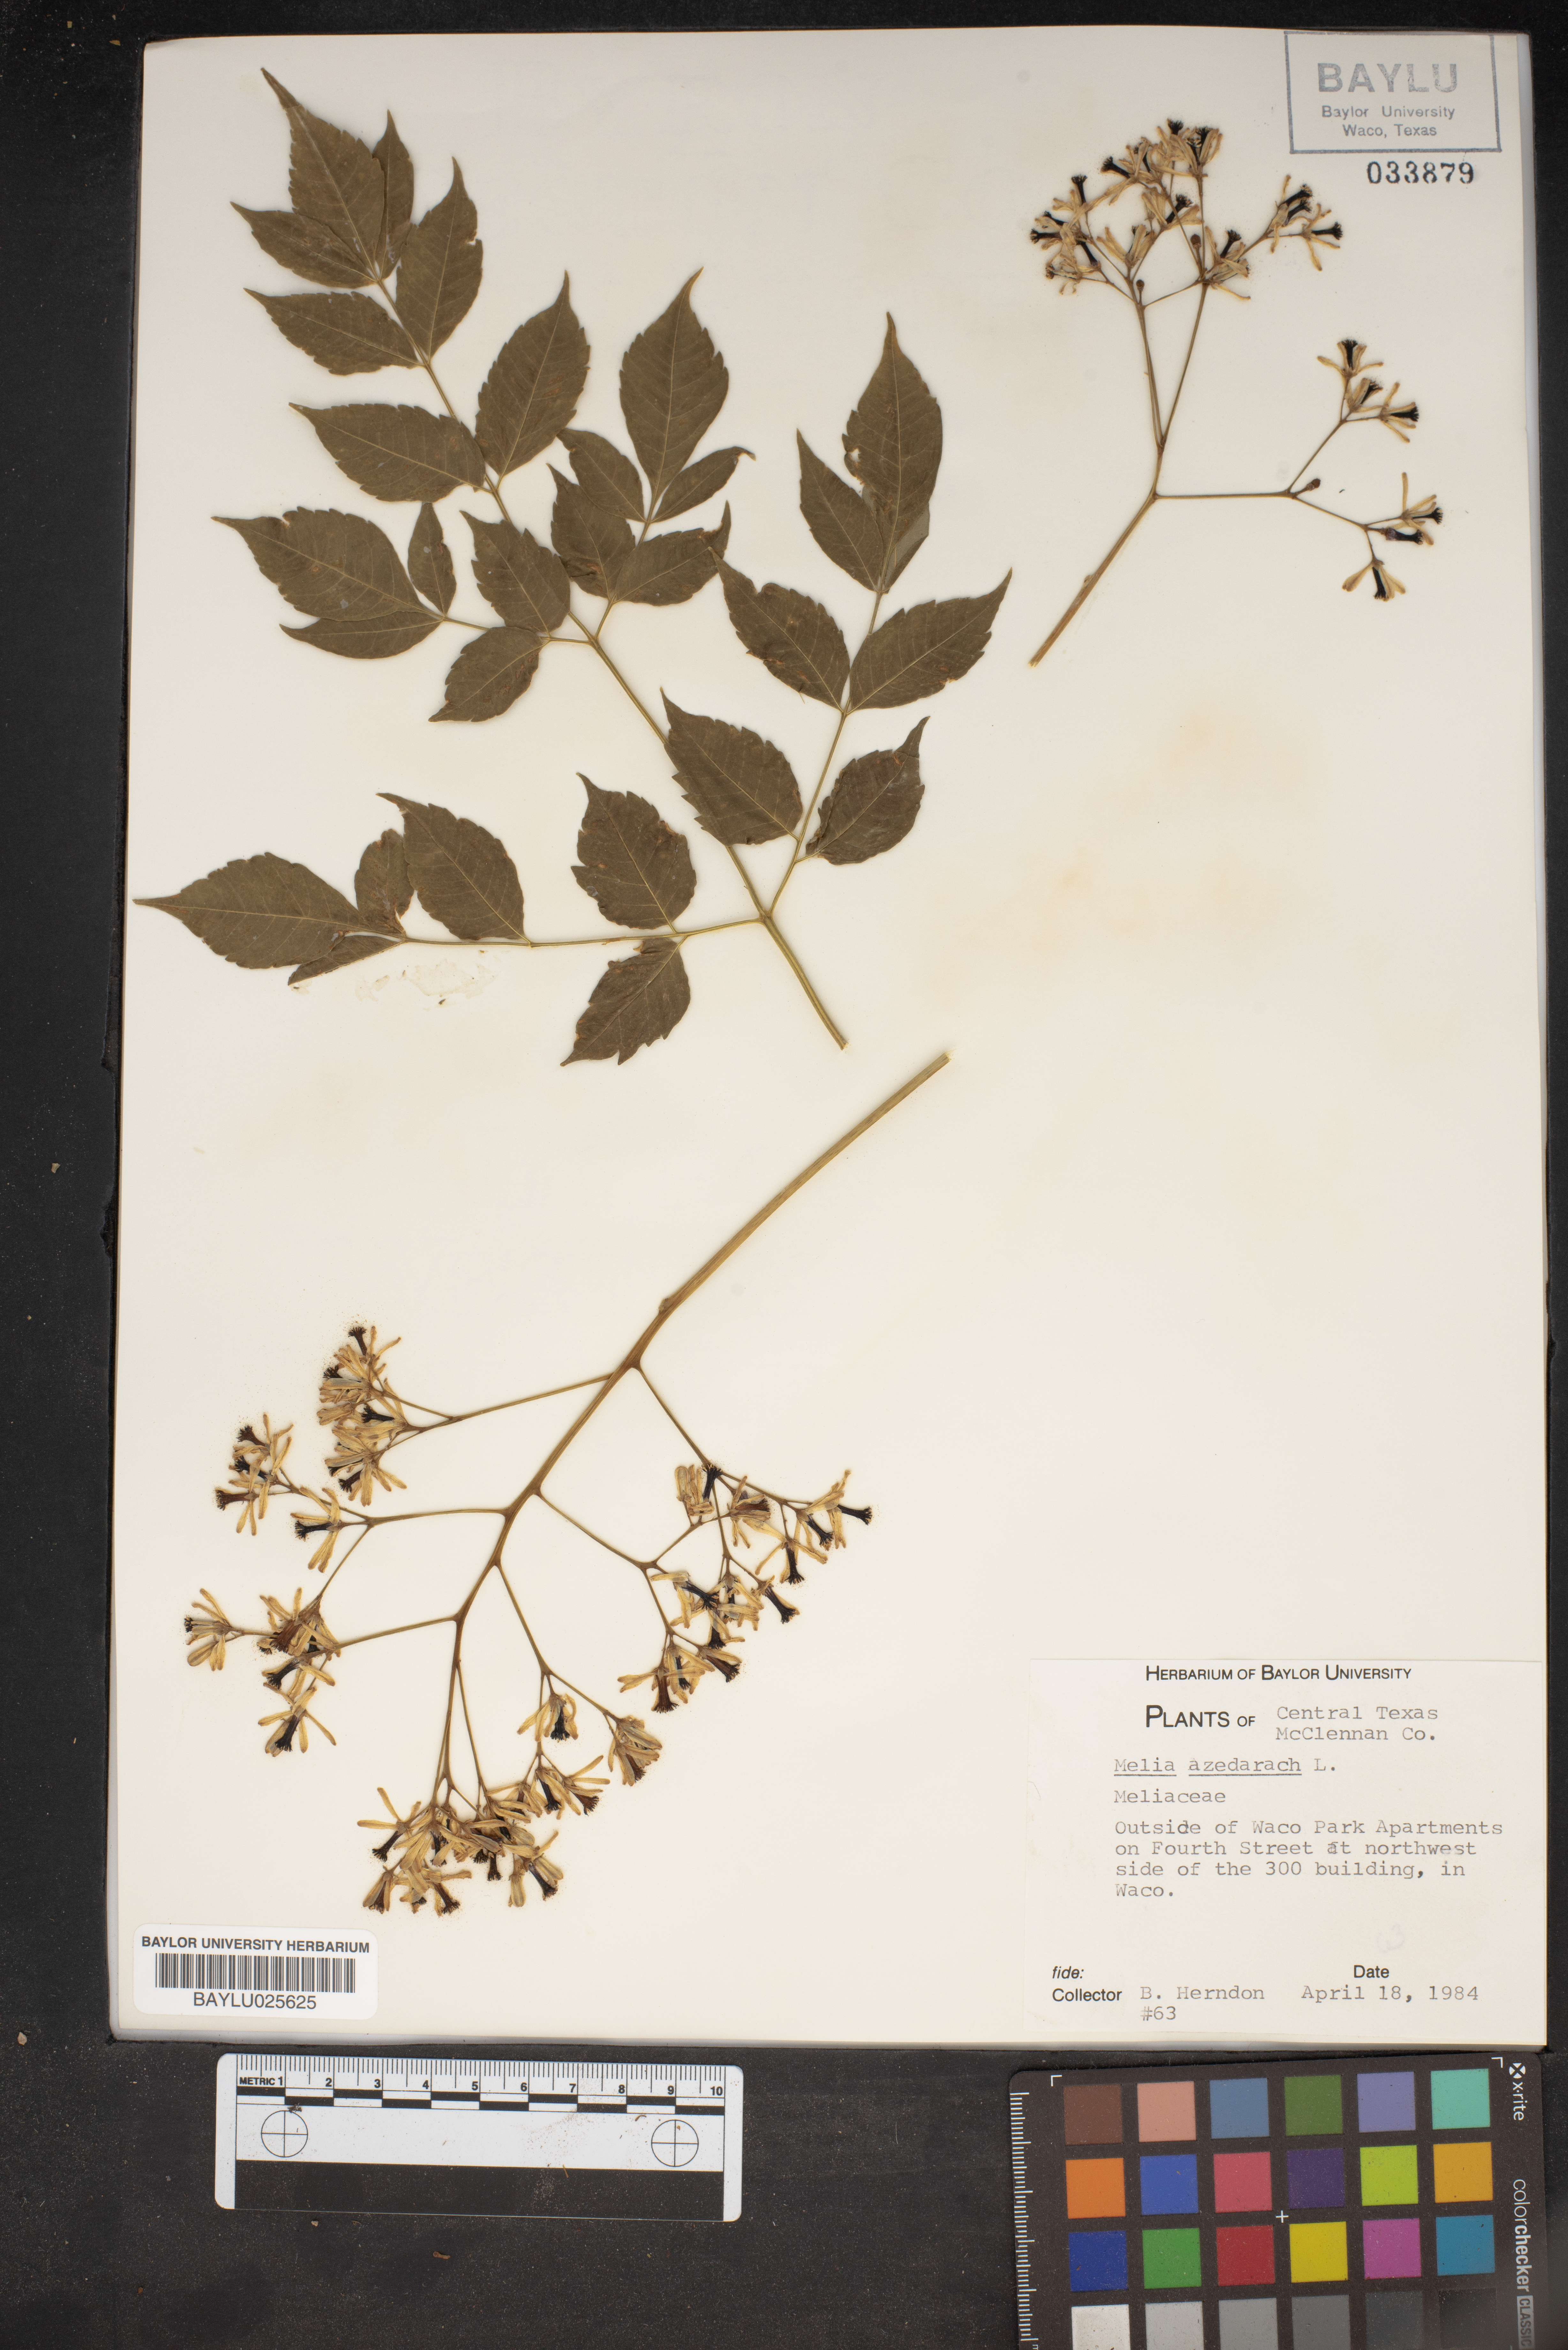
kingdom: Plantae
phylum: Tracheophyta
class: Magnoliopsida
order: Sapindales
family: Meliaceae
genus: Melia
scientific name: Melia azedarach
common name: Chinaberrytree
